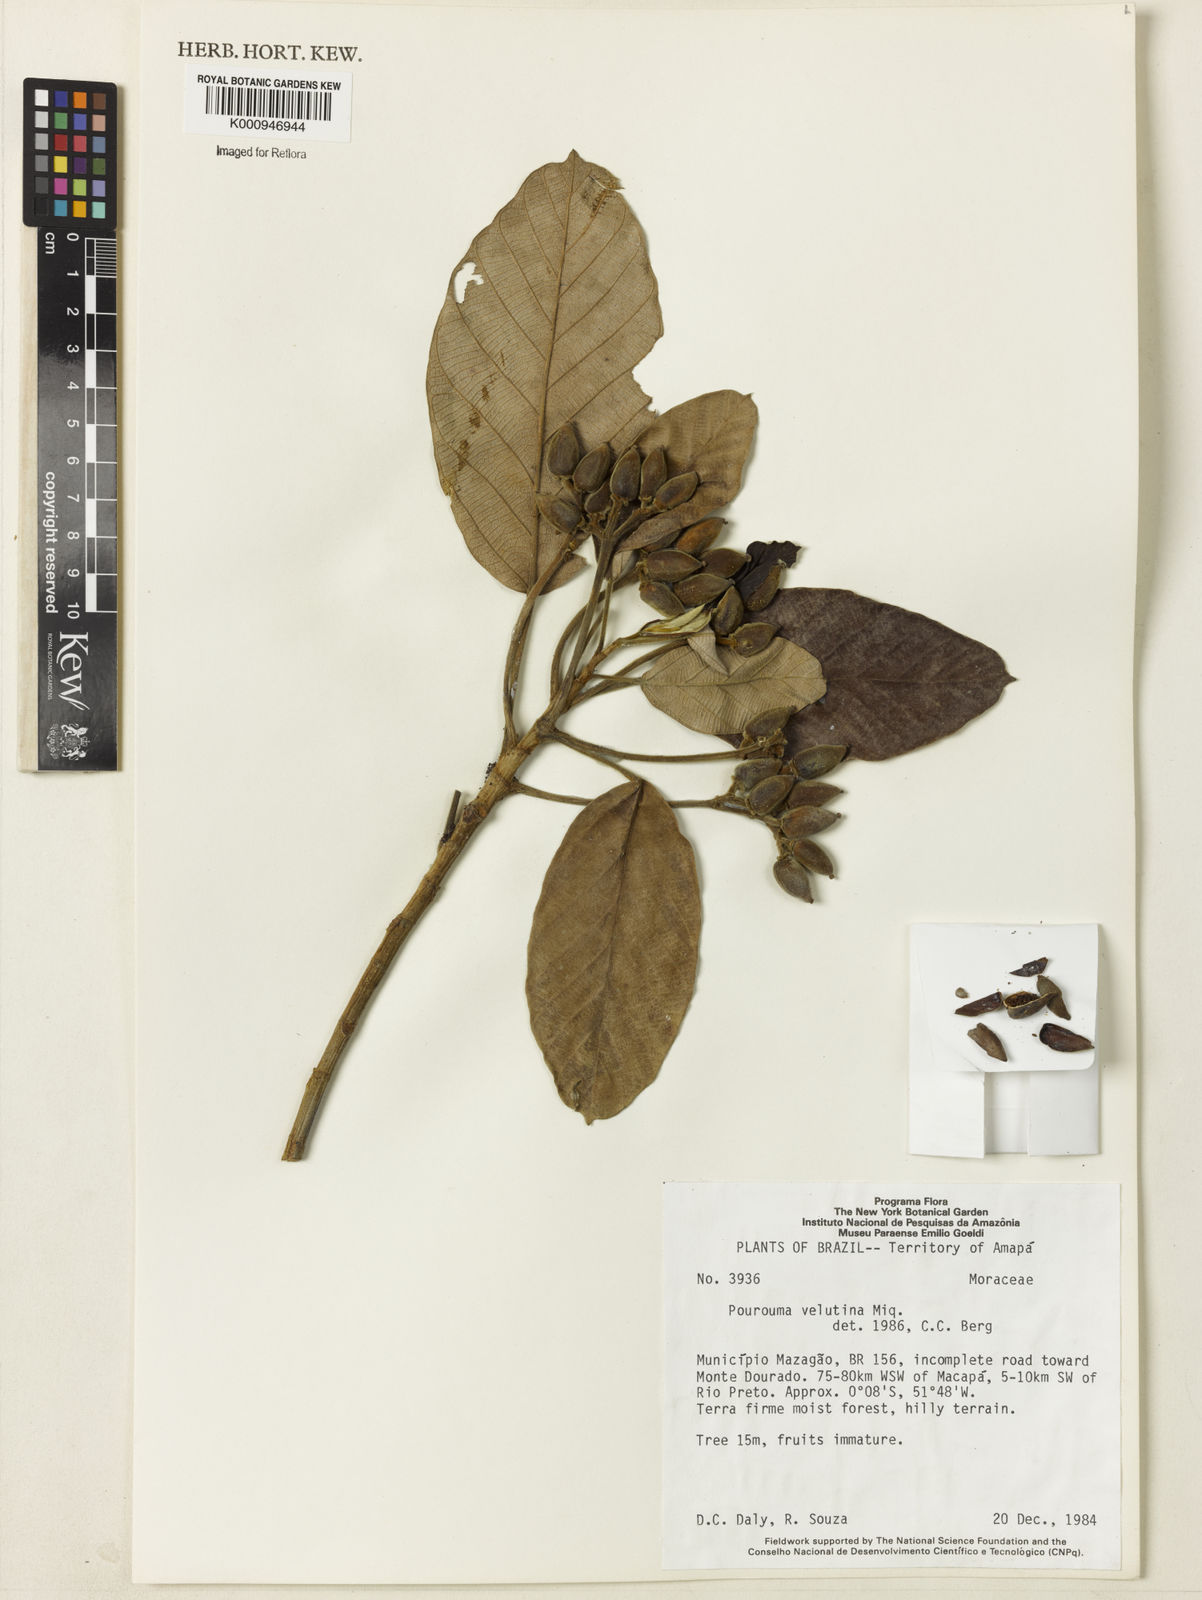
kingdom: Plantae
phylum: Tracheophyta
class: Magnoliopsida
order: Rosales
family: Urticaceae
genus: Pourouma
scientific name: Pourouma velutina
